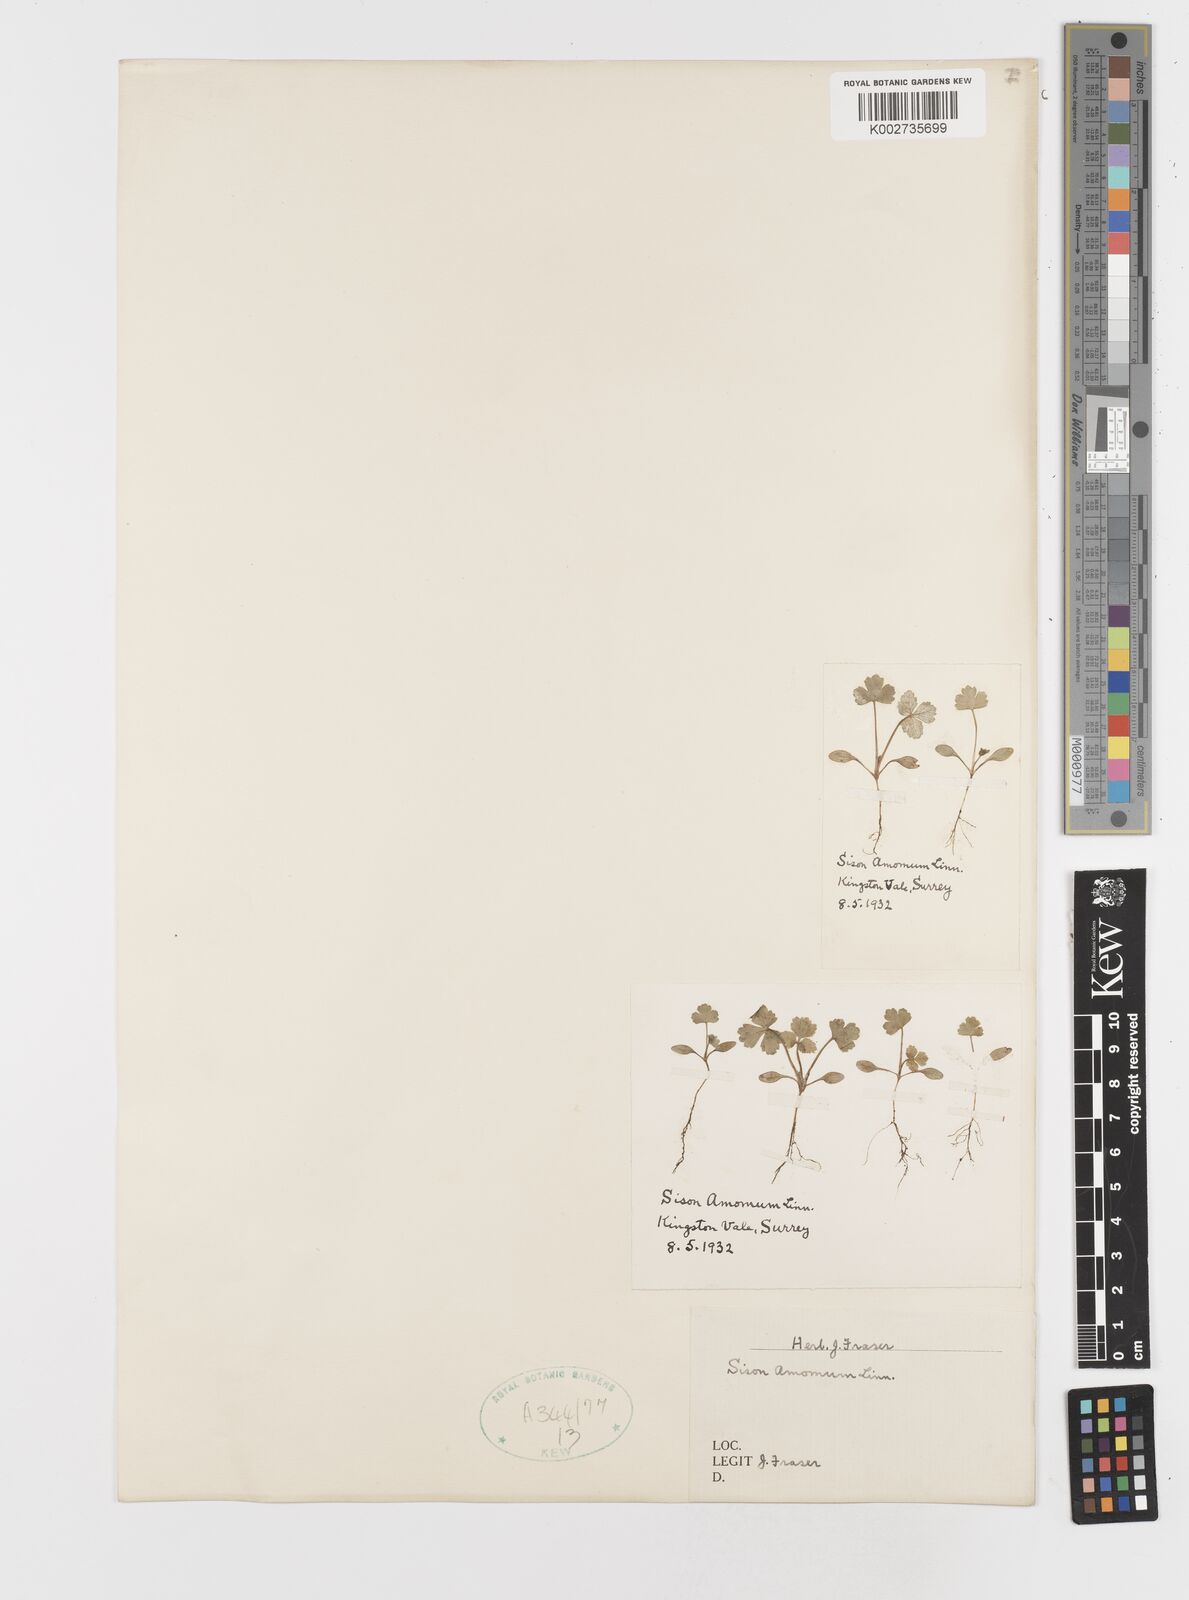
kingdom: Plantae
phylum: Tracheophyta
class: Magnoliopsida
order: Apiales
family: Apiaceae
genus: Sison
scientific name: Sison amomum
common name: Stone-parsley
